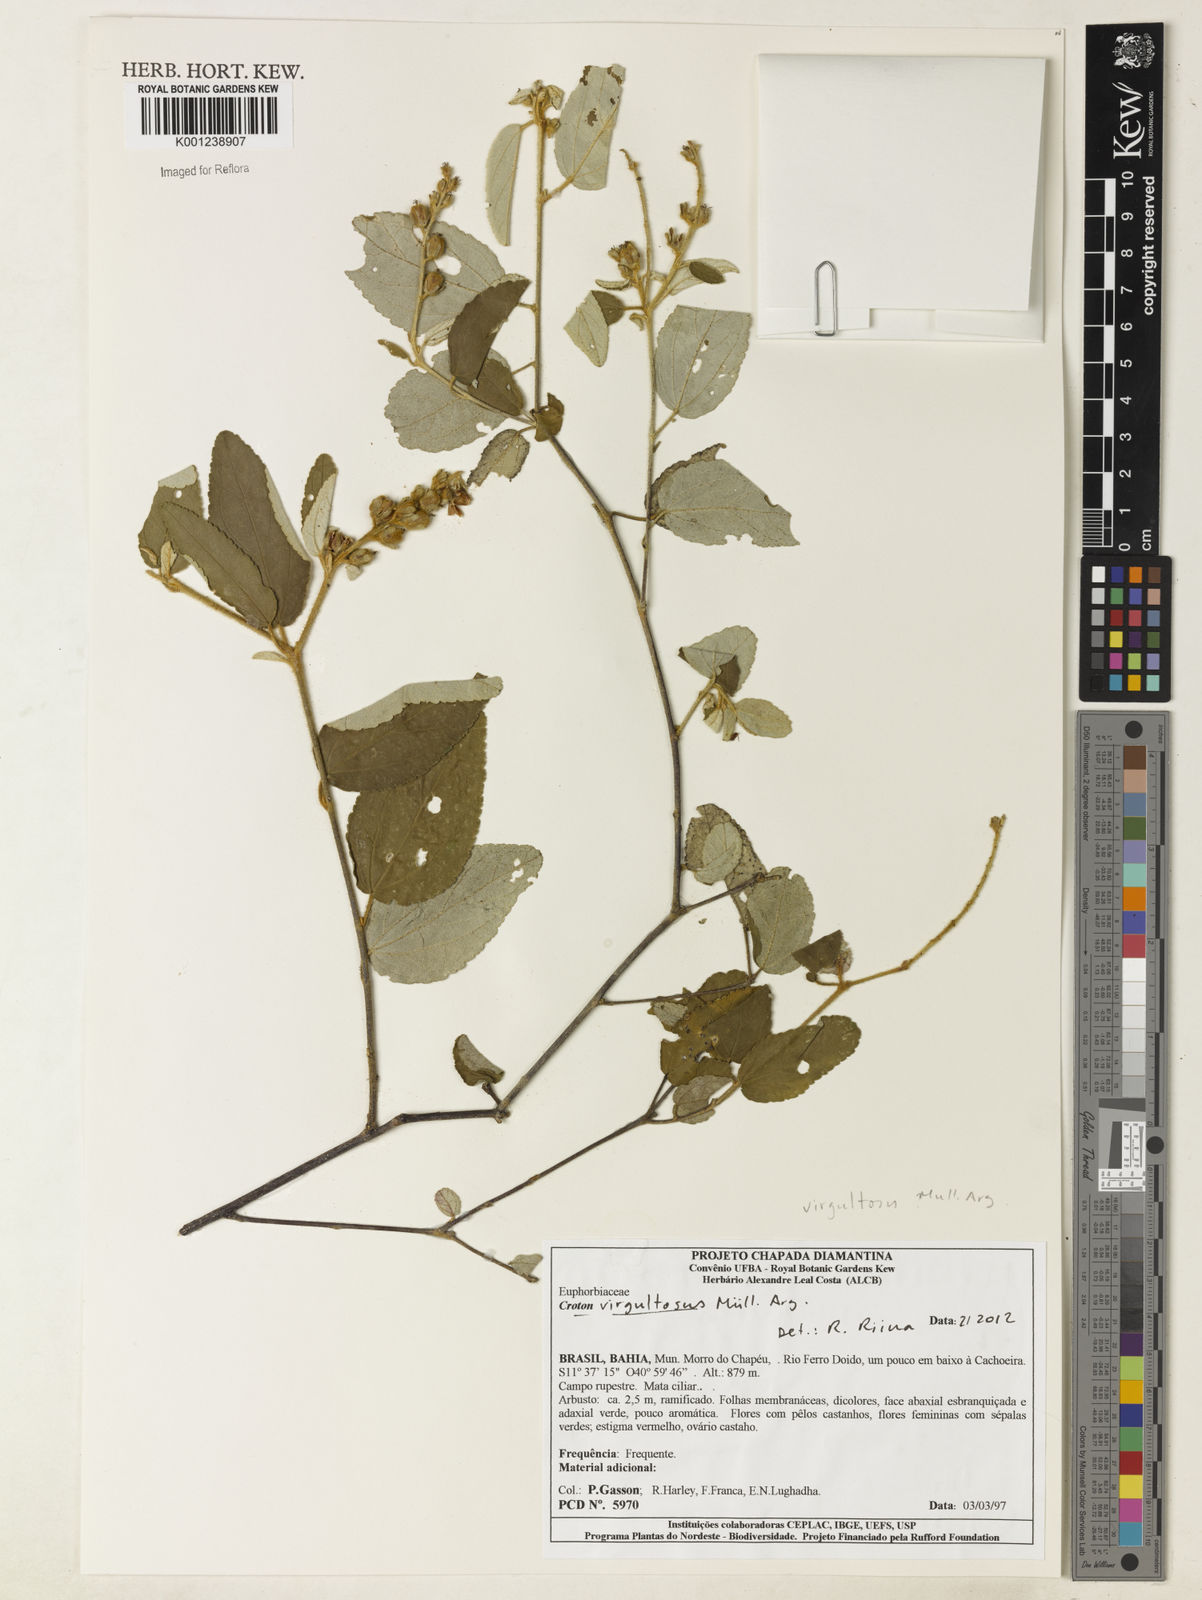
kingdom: Plantae
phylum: Tracheophyta
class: Magnoliopsida
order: Malpighiales
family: Euphorbiaceae
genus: Croton
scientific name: Croton virgultosus
